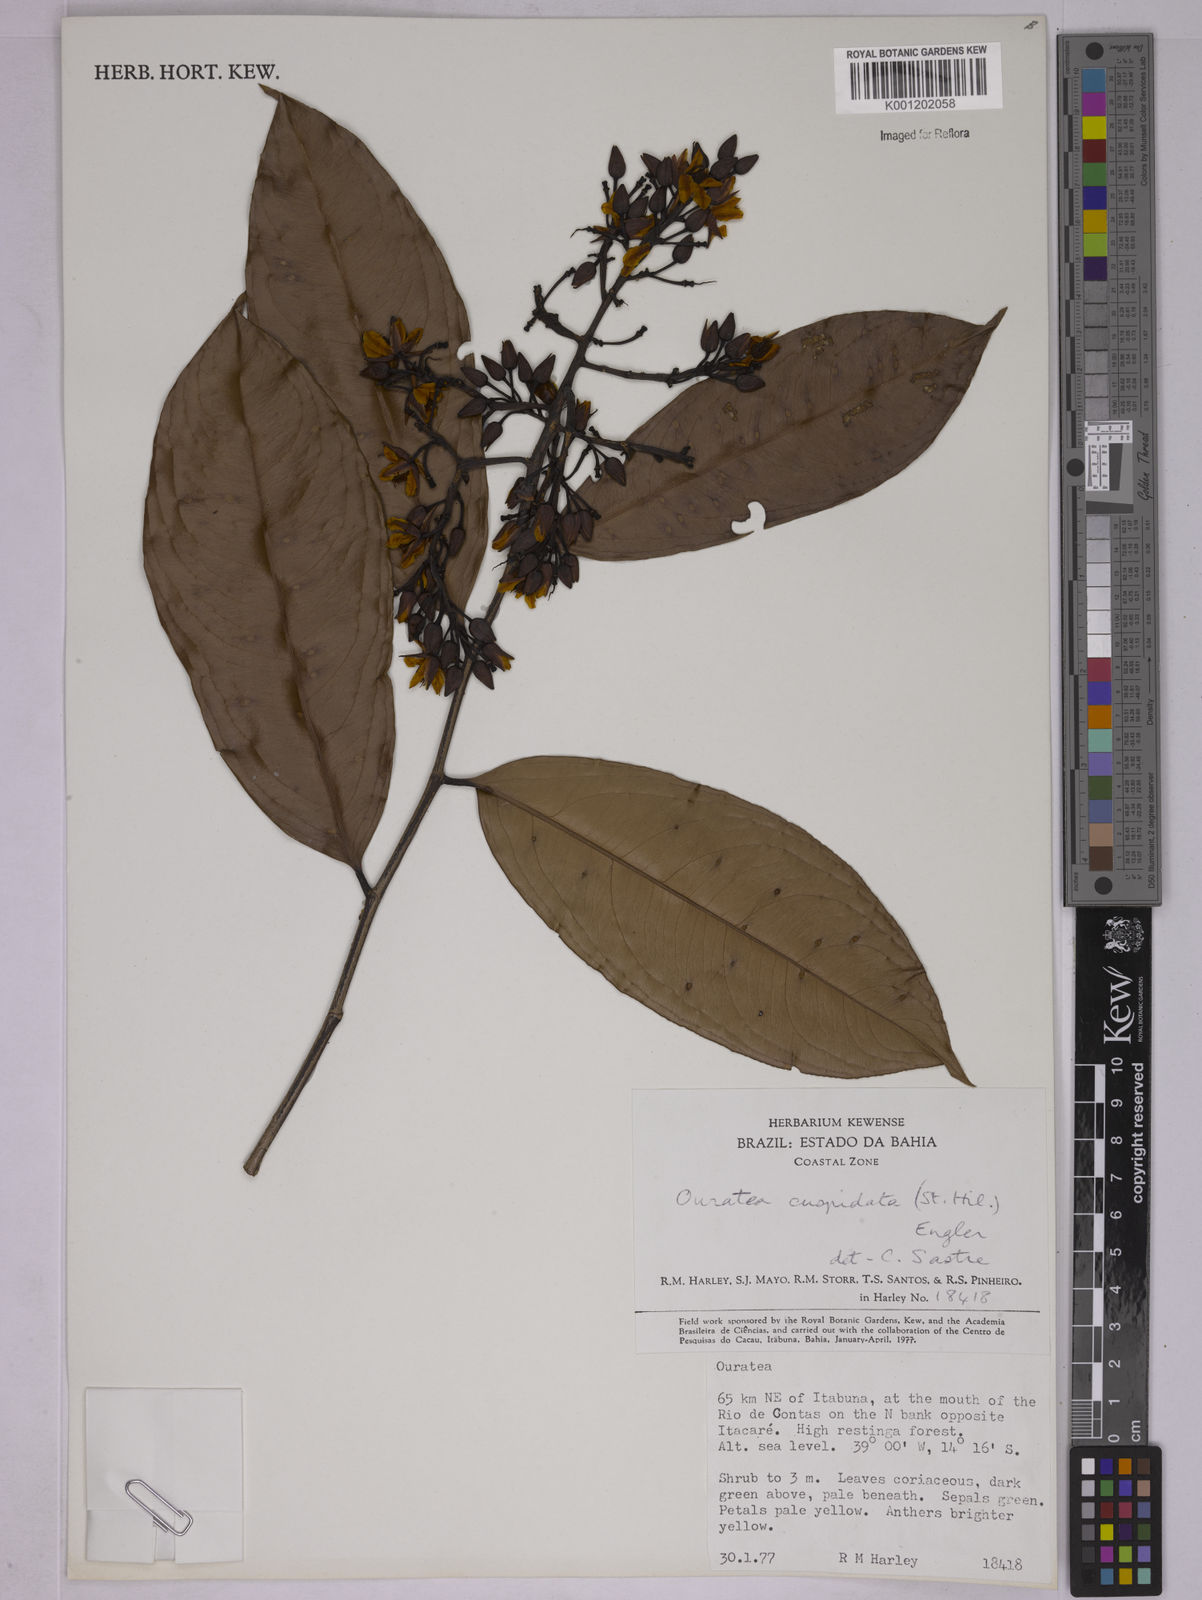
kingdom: Plantae
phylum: Tracheophyta
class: Magnoliopsida
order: Malpighiales
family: Ochnaceae
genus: Ouratea
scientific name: Ouratea cuspidata
